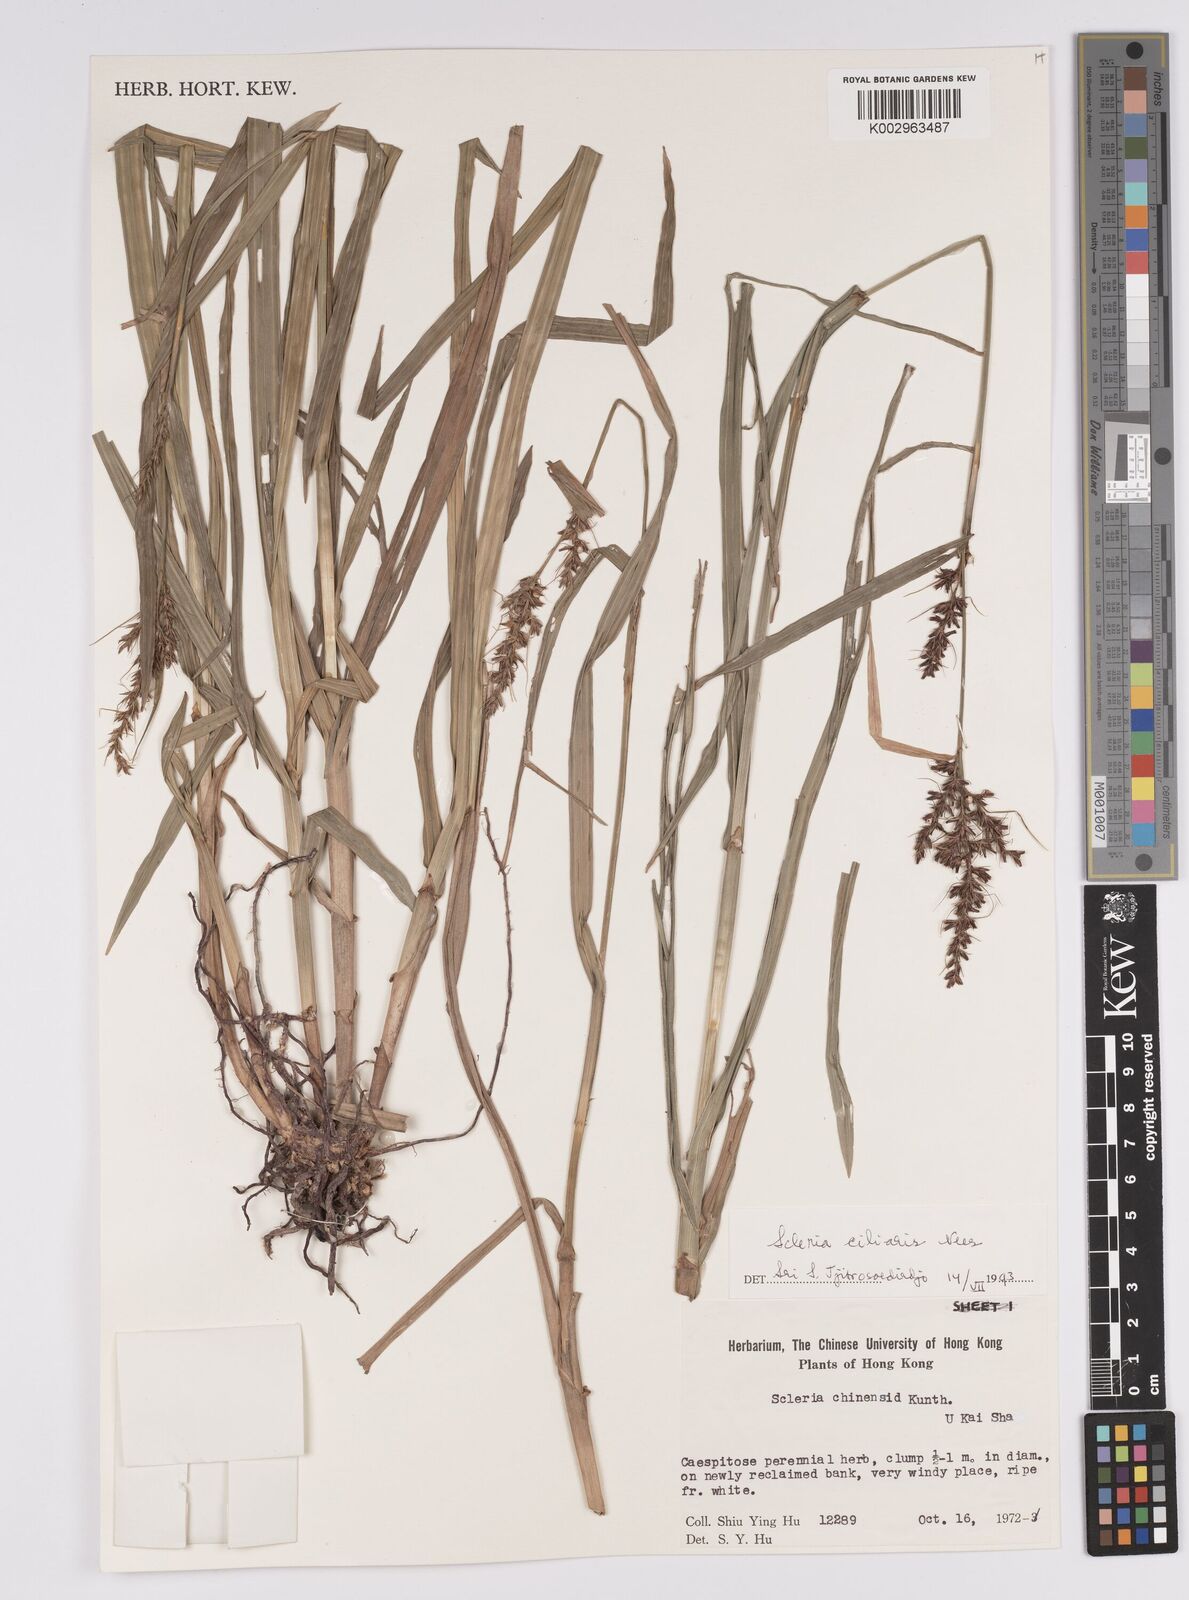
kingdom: Plantae
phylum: Tracheophyta
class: Liliopsida
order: Poales
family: Cyperaceae
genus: Scleria
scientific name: Scleria ciliaris
